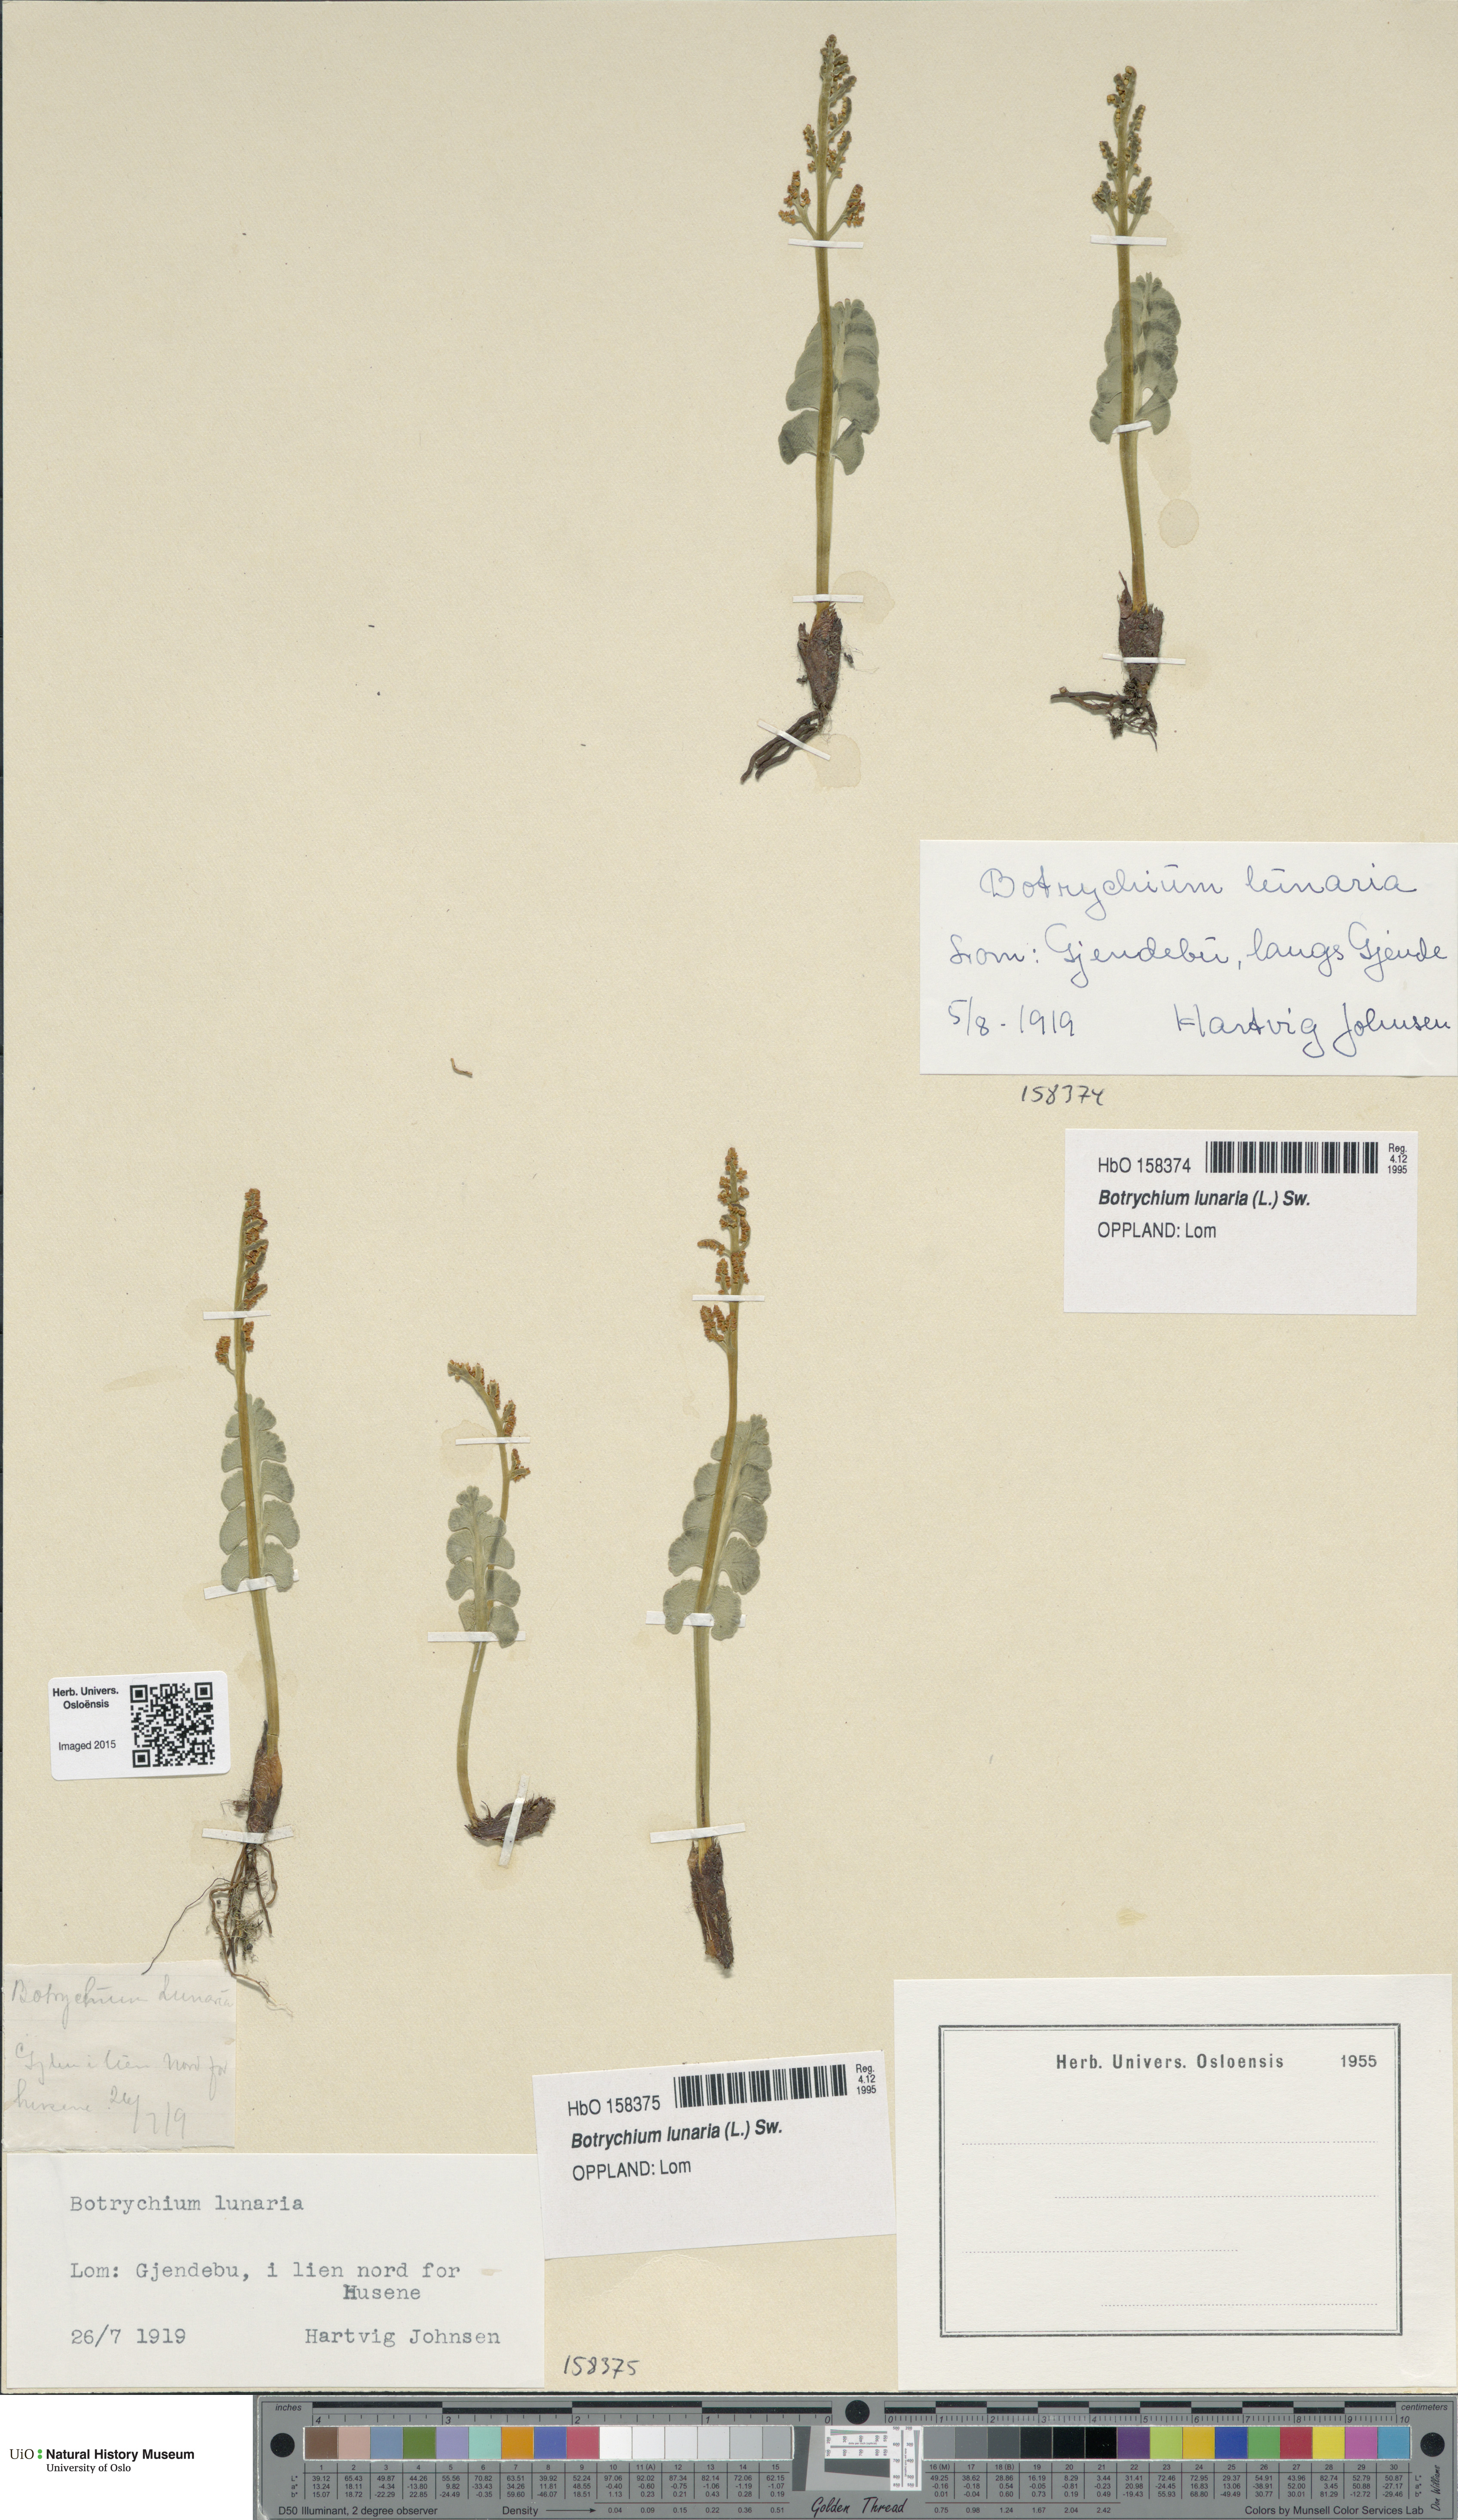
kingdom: Plantae
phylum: Tracheophyta
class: Polypodiopsida
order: Ophioglossales
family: Ophioglossaceae
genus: Botrychium
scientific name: Botrychium lunaria
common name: Moonwort
